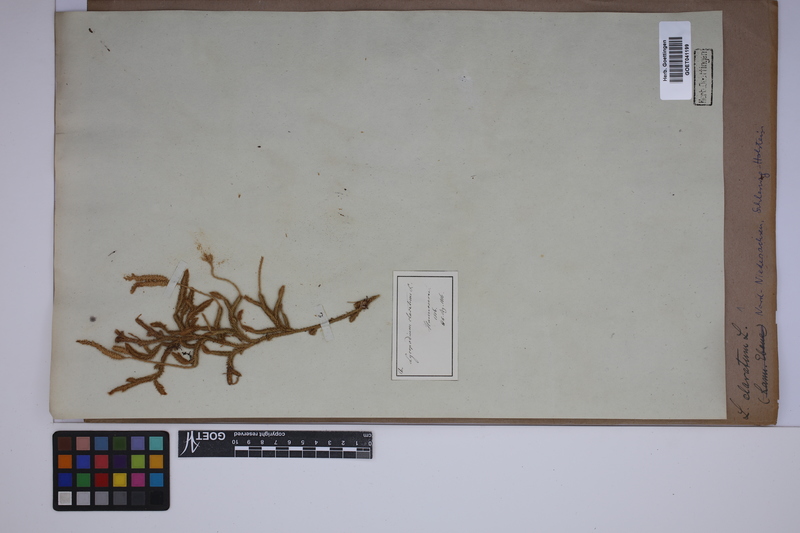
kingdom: Plantae
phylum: Tracheophyta
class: Lycopodiopsida
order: Lycopodiales
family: Lycopodiaceae
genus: Lycopodium
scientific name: Lycopodium clavatum
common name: Stag's-horn clubmoss
